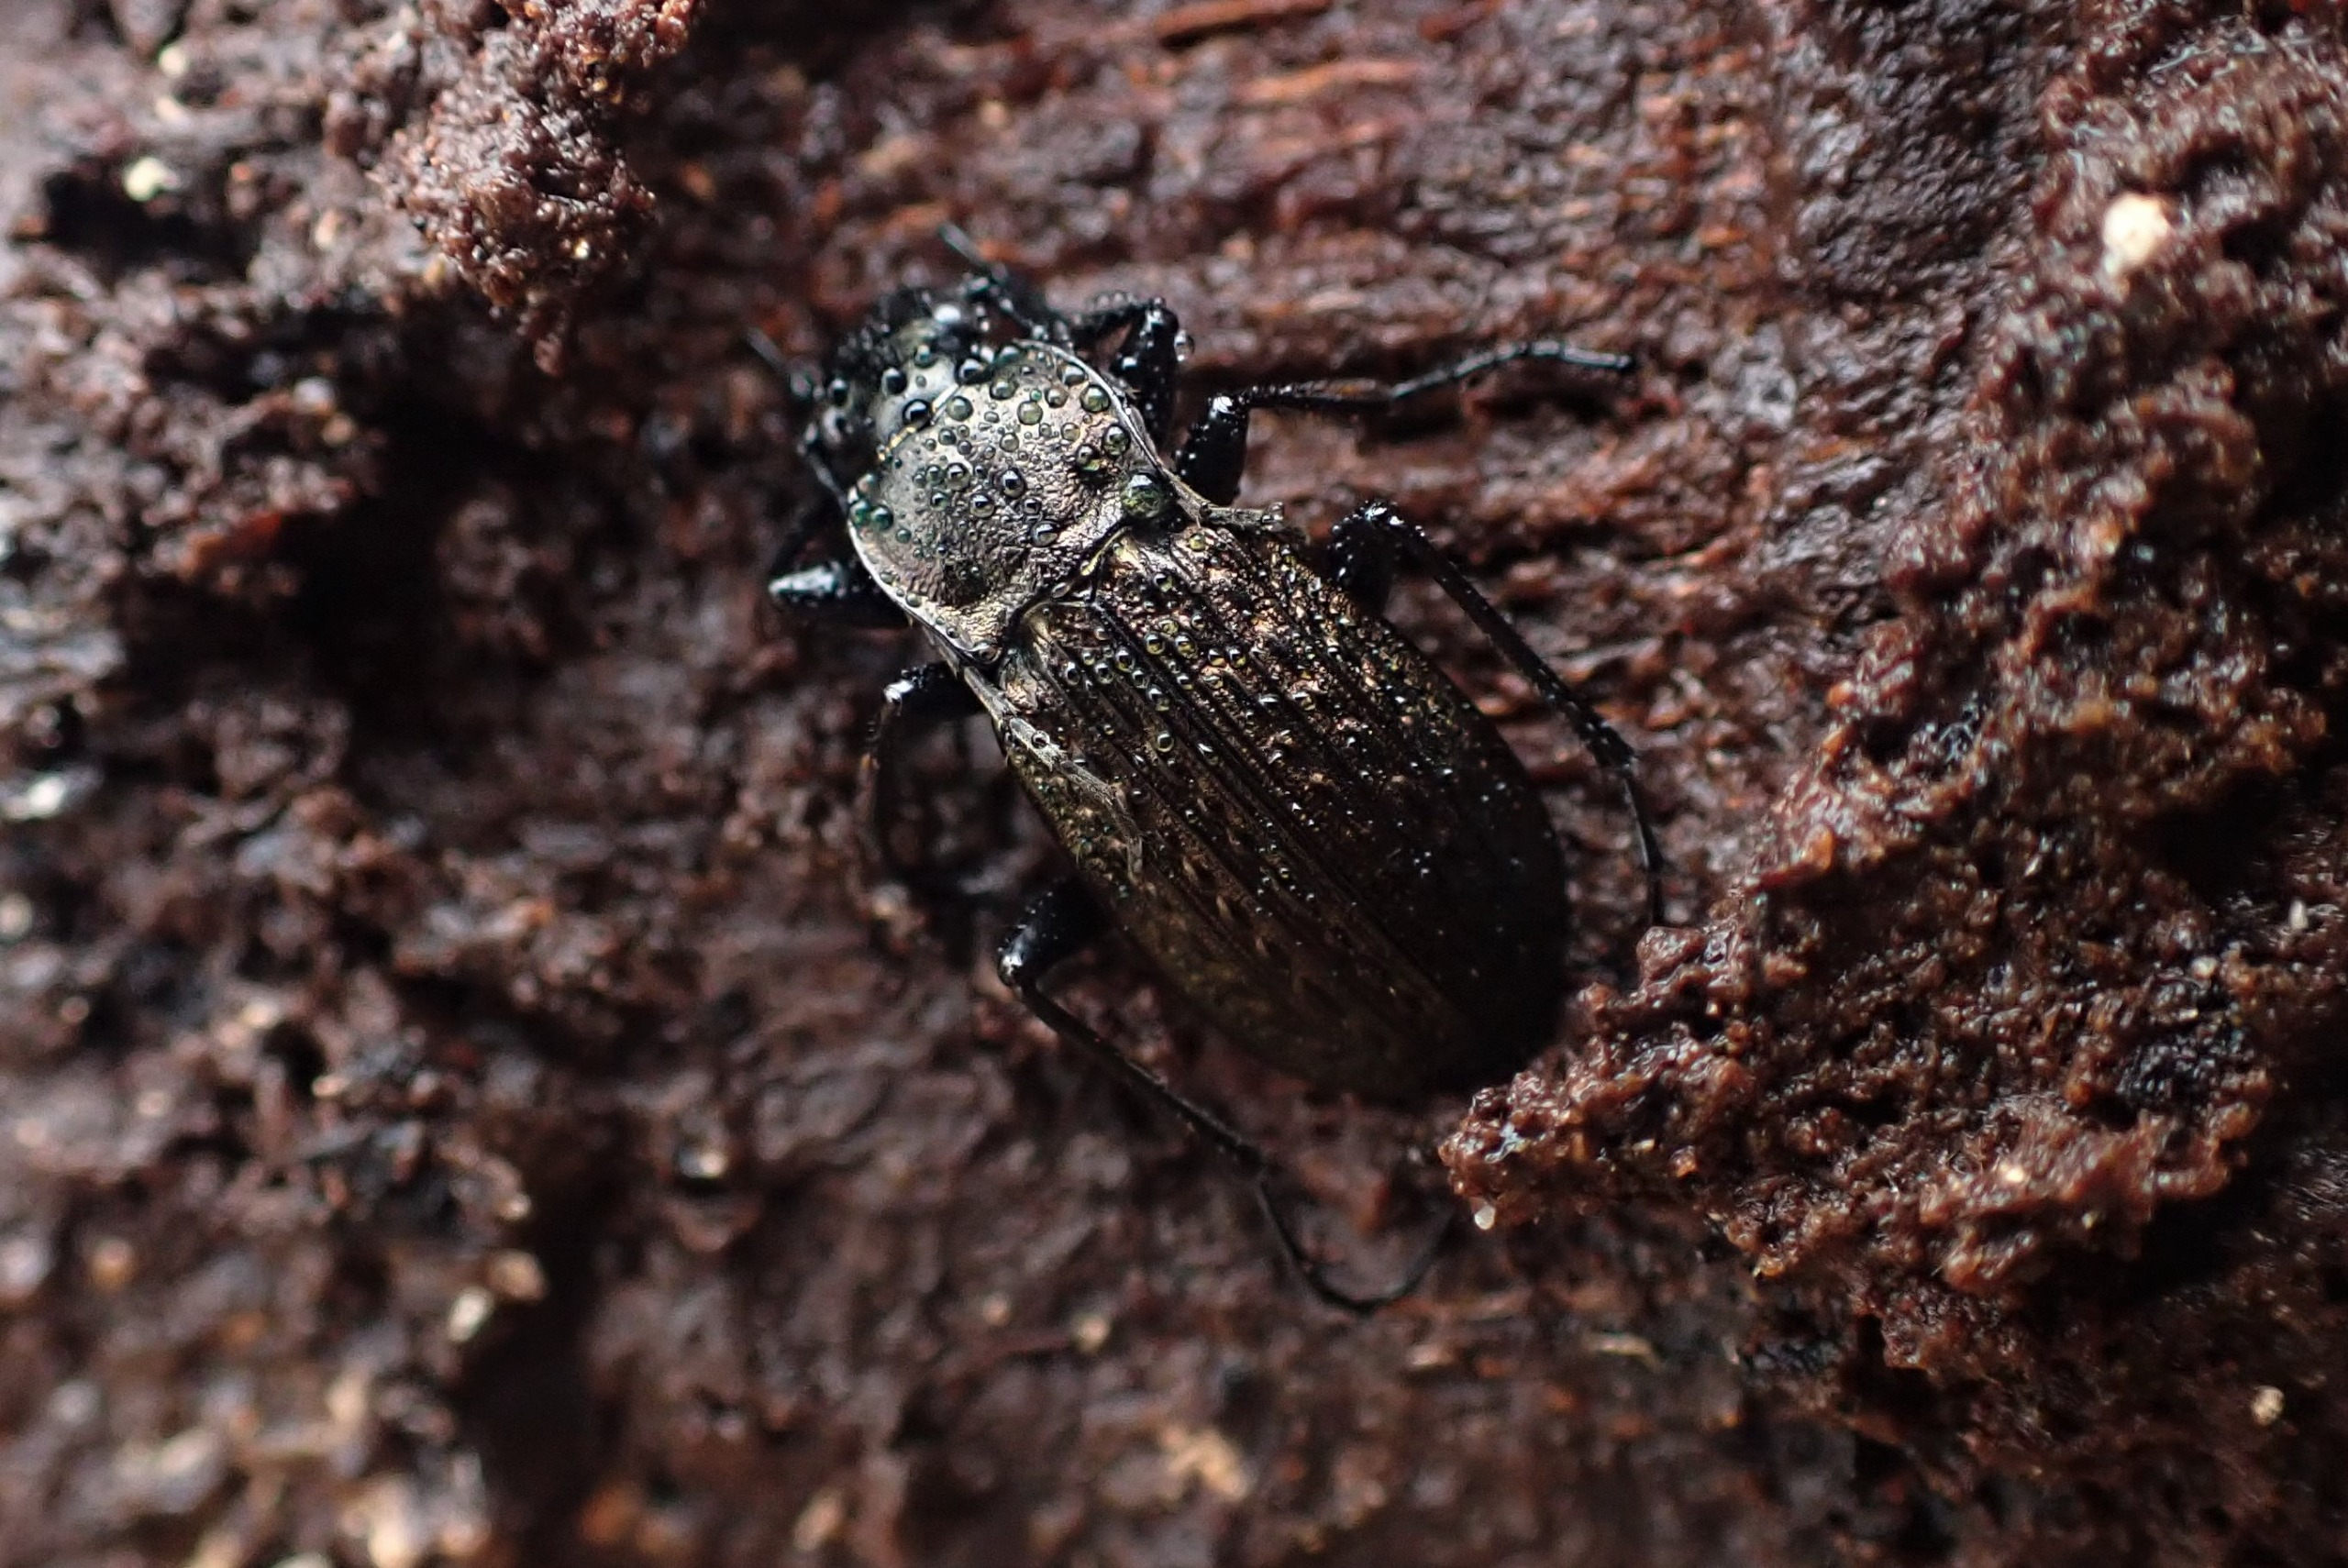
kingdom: Animalia
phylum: Arthropoda
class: Insecta
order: Coleoptera
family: Carabidae
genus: Carabus
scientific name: Carabus granulatus
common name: Kornet løber
